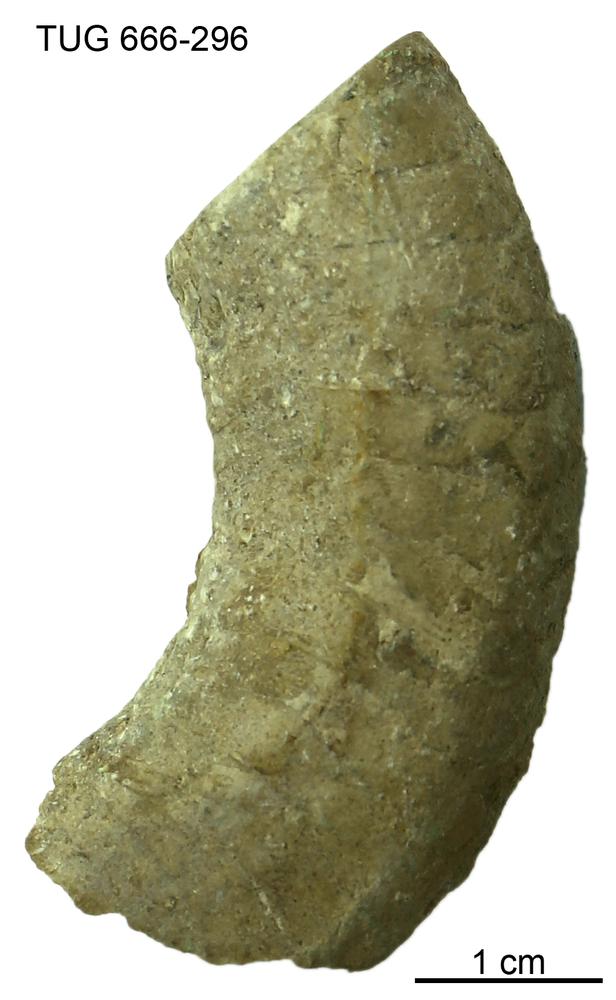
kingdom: Animalia
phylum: Mollusca
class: Cephalopoda
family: Trocholitidae
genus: Discoceras
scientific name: Discoceras
